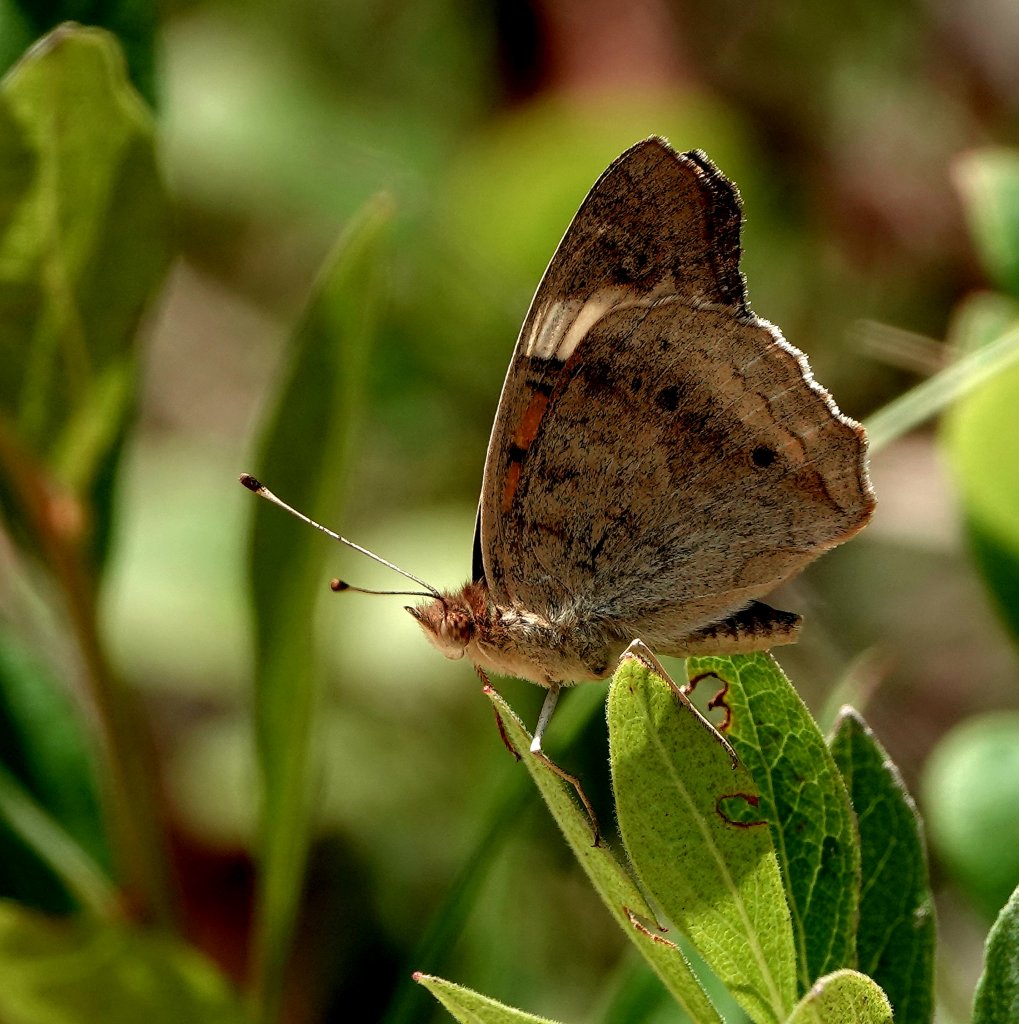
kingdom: Animalia
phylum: Arthropoda
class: Insecta
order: Lepidoptera
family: Nymphalidae
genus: Junonia
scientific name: Junonia coenia
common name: Common Buckeye
